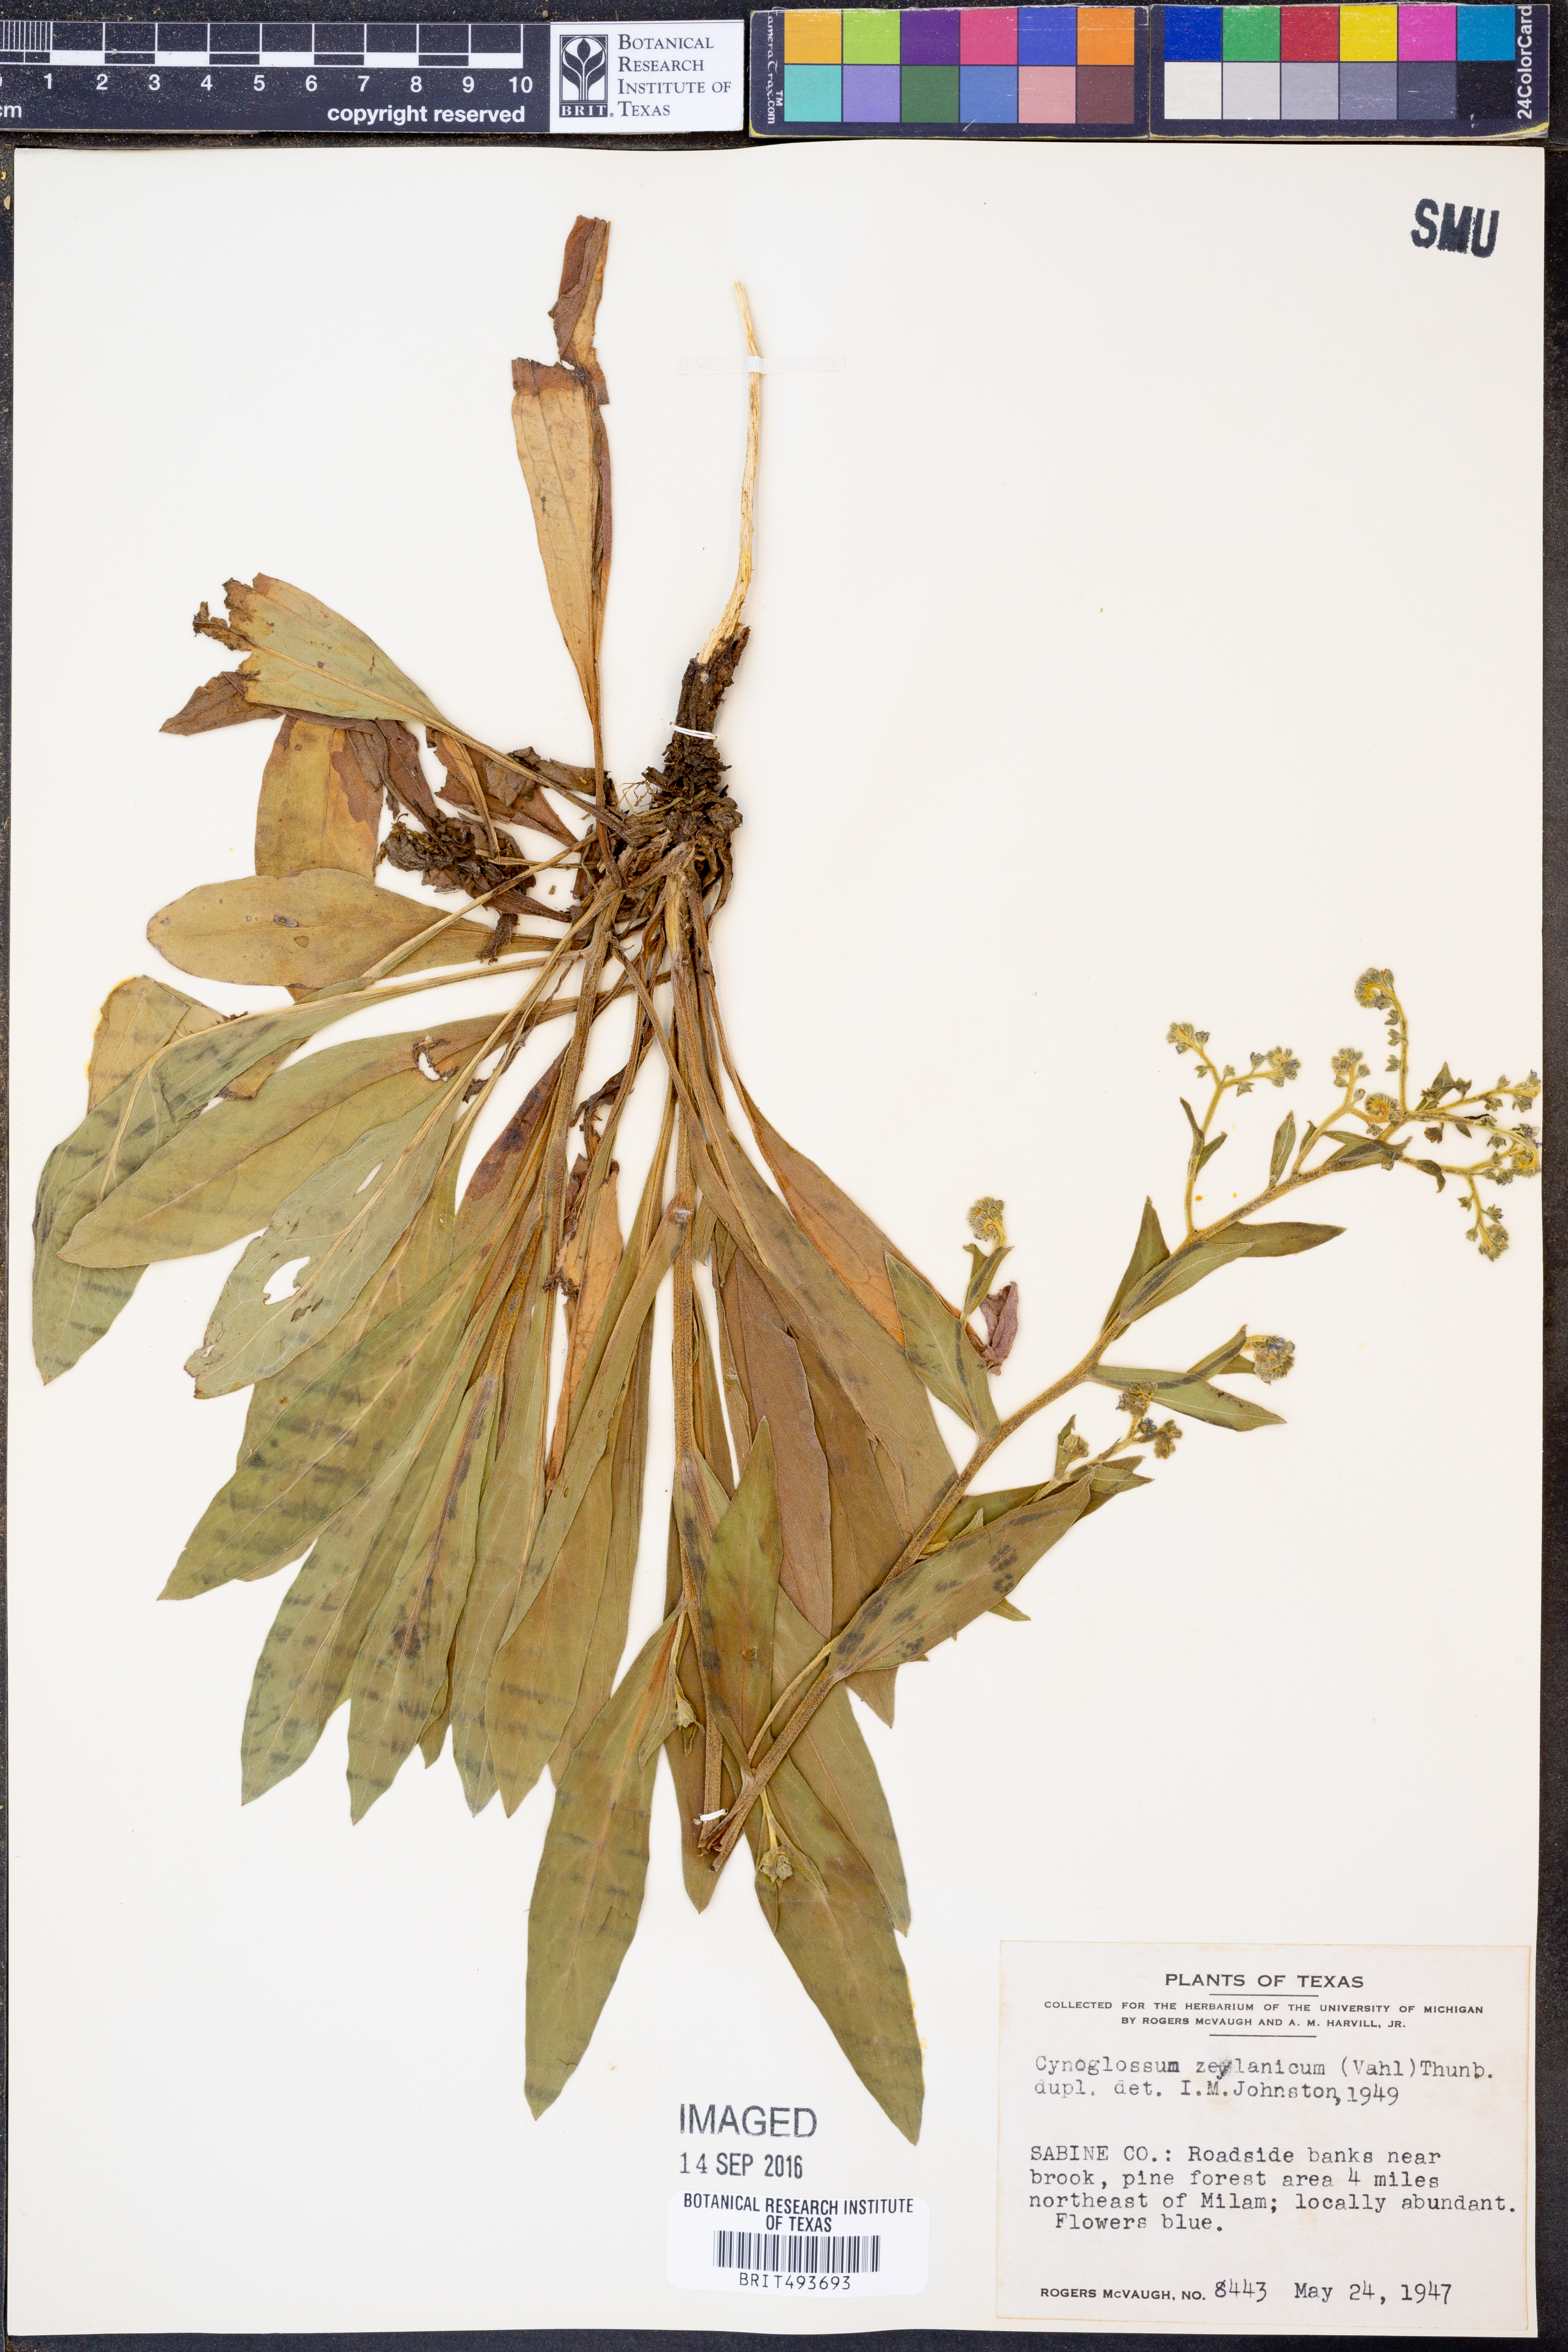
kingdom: Plantae
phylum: Tracheophyta
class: Magnoliopsida
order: Boraginales
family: Boraginaceae
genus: Cynoglossum
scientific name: Cynoglossum zeylanicum
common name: Ceylon hound's tongue
